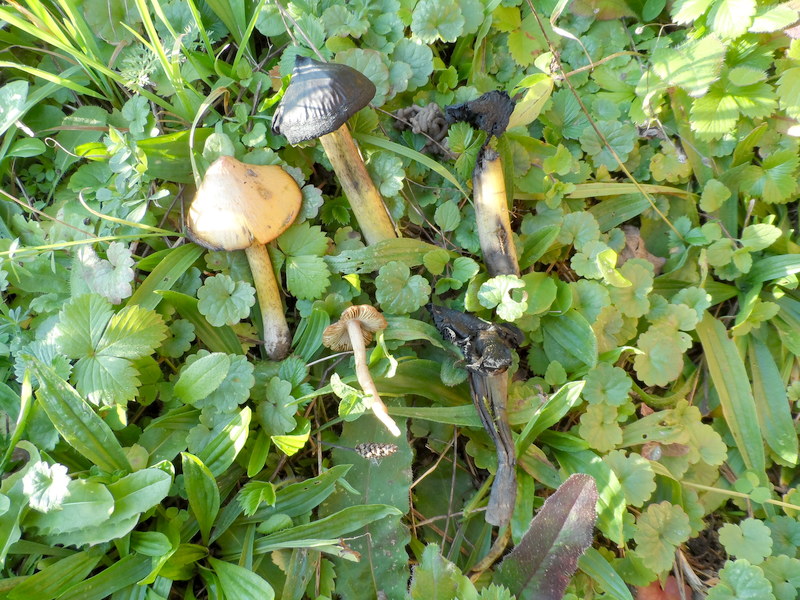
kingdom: Fungi
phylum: Basidiomycota
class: Agaricomycetes
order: Agaricales
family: Hygrophoraceae
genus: Hygrocybe
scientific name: Hygrocybe conica
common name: Blackening wax-cap
